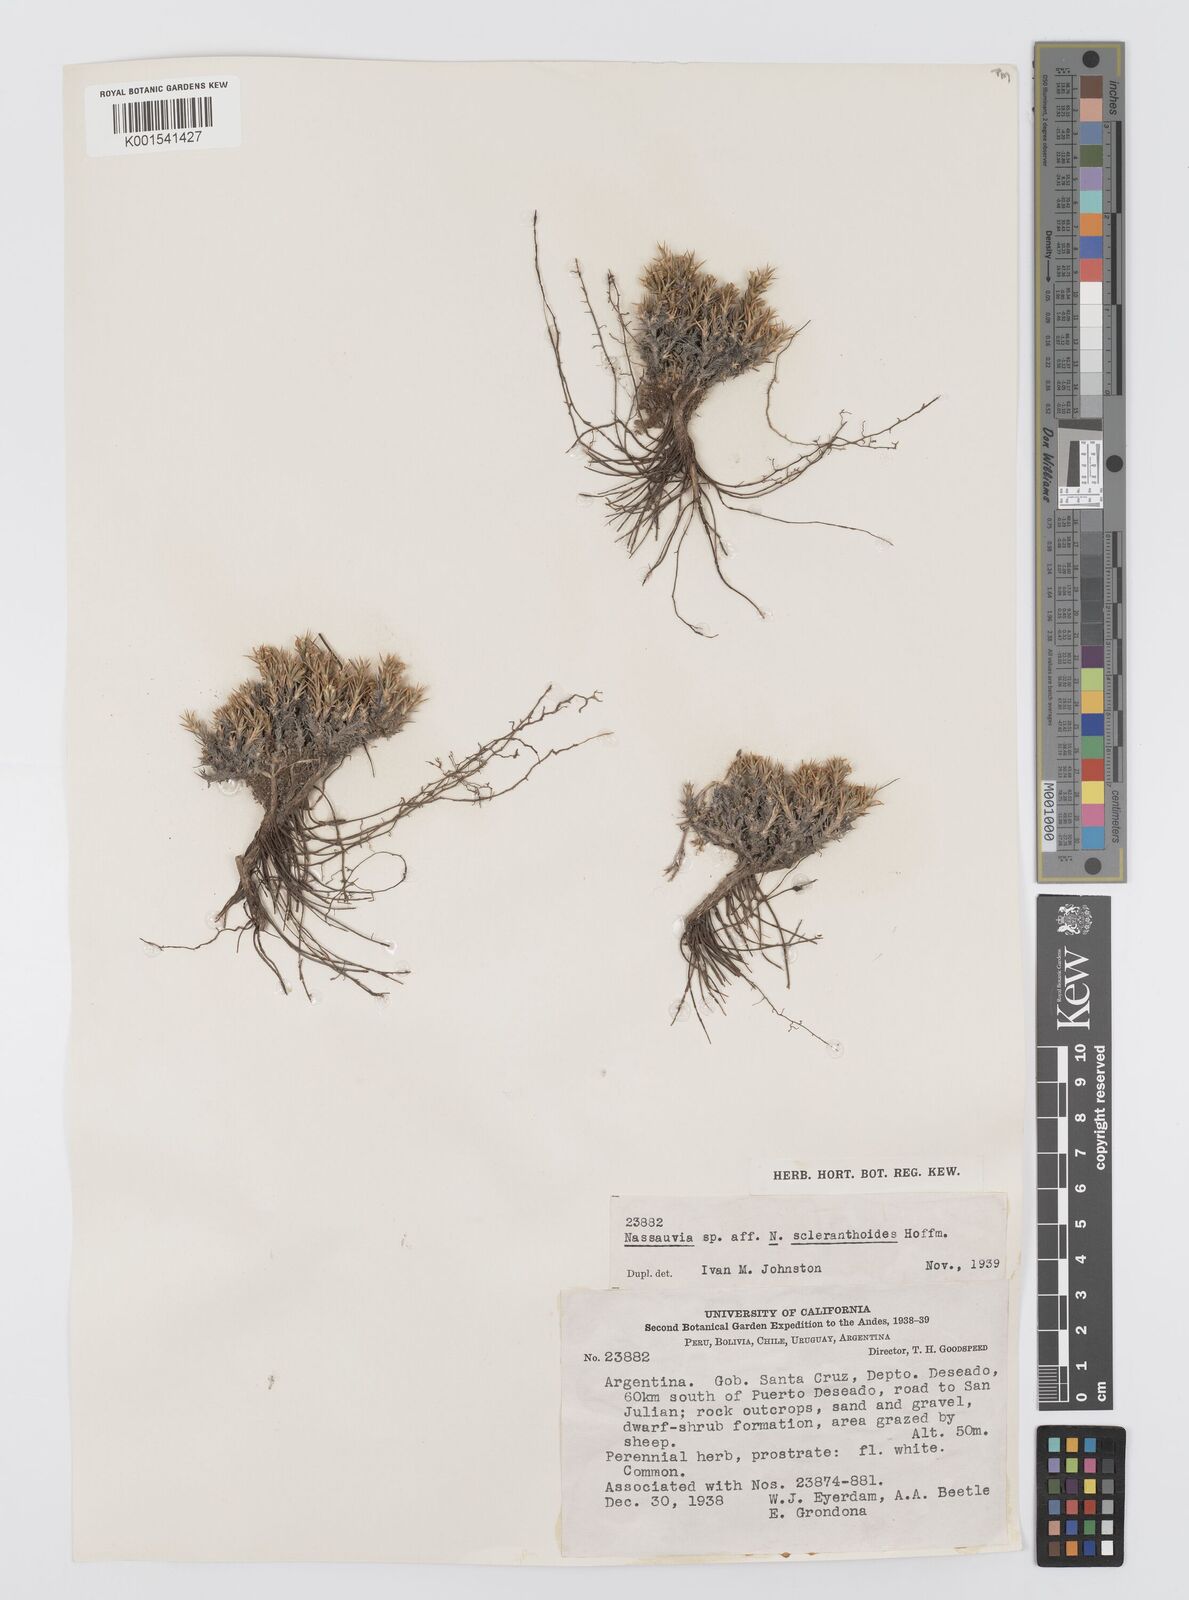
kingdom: Plantae
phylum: Tracheophyta
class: Magnoliopsida
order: Asterales
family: Asteraceae
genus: Nassauvia
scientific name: Nassauvia fuegiana
